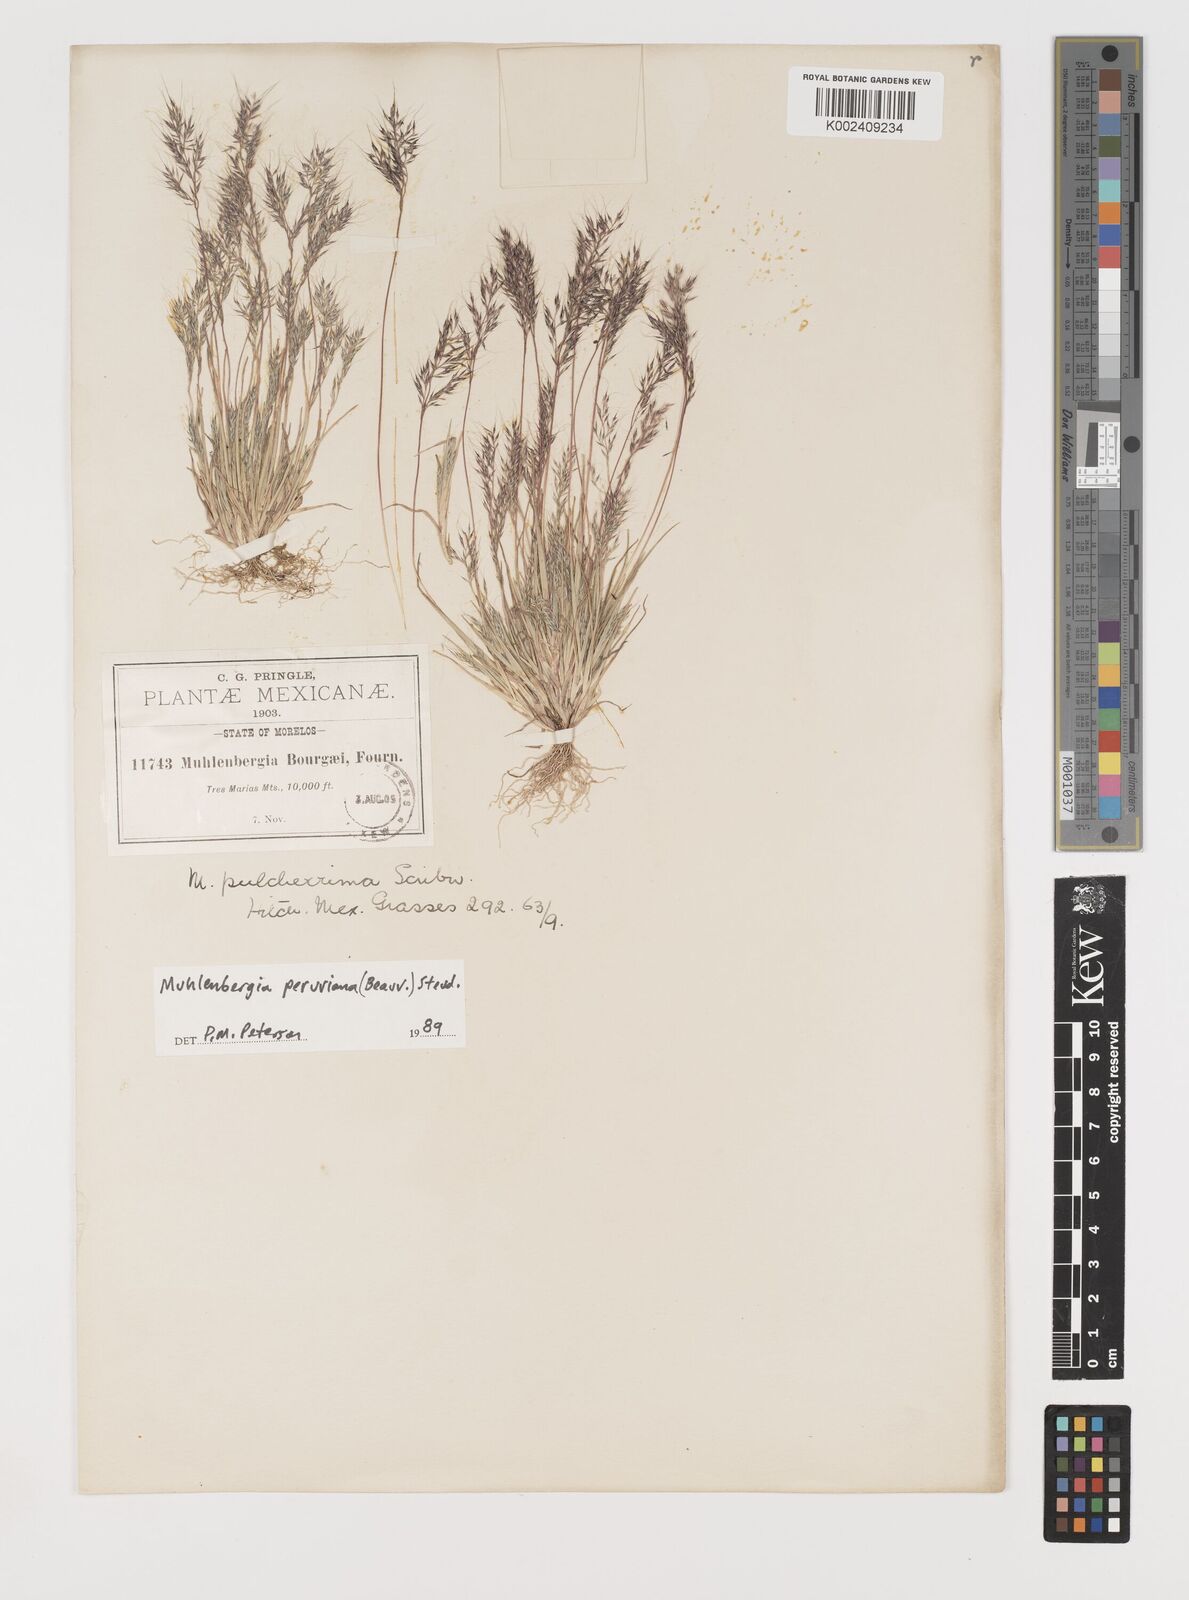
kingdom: Plantae
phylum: Tracheophyta
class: Liliopsida
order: Poales
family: Poaceae
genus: Muhlenbergia
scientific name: Muhlenbergia peruviana
